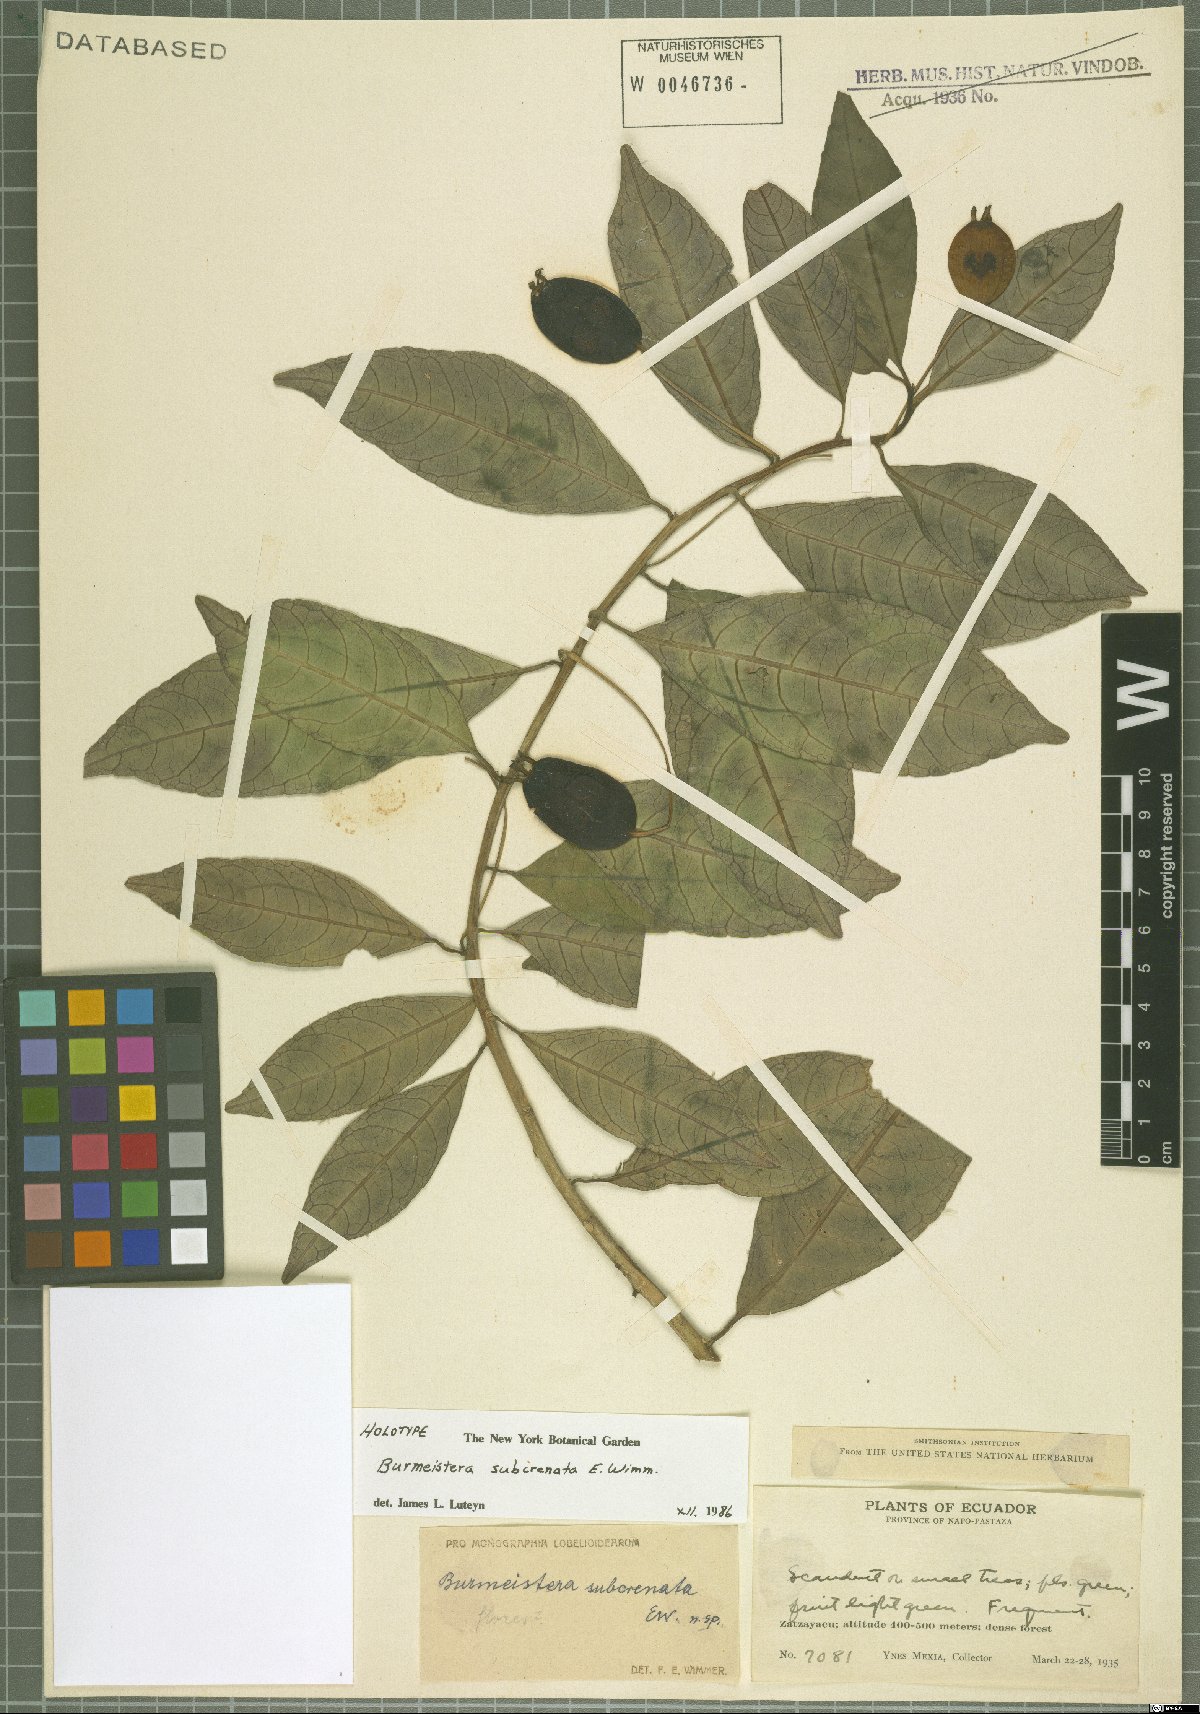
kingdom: Plantae
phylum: Tracheophyta
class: Magnoliopsida
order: Asterales
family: Campanulaceae
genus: Burmeistera
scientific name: Burmeistera glabrata
